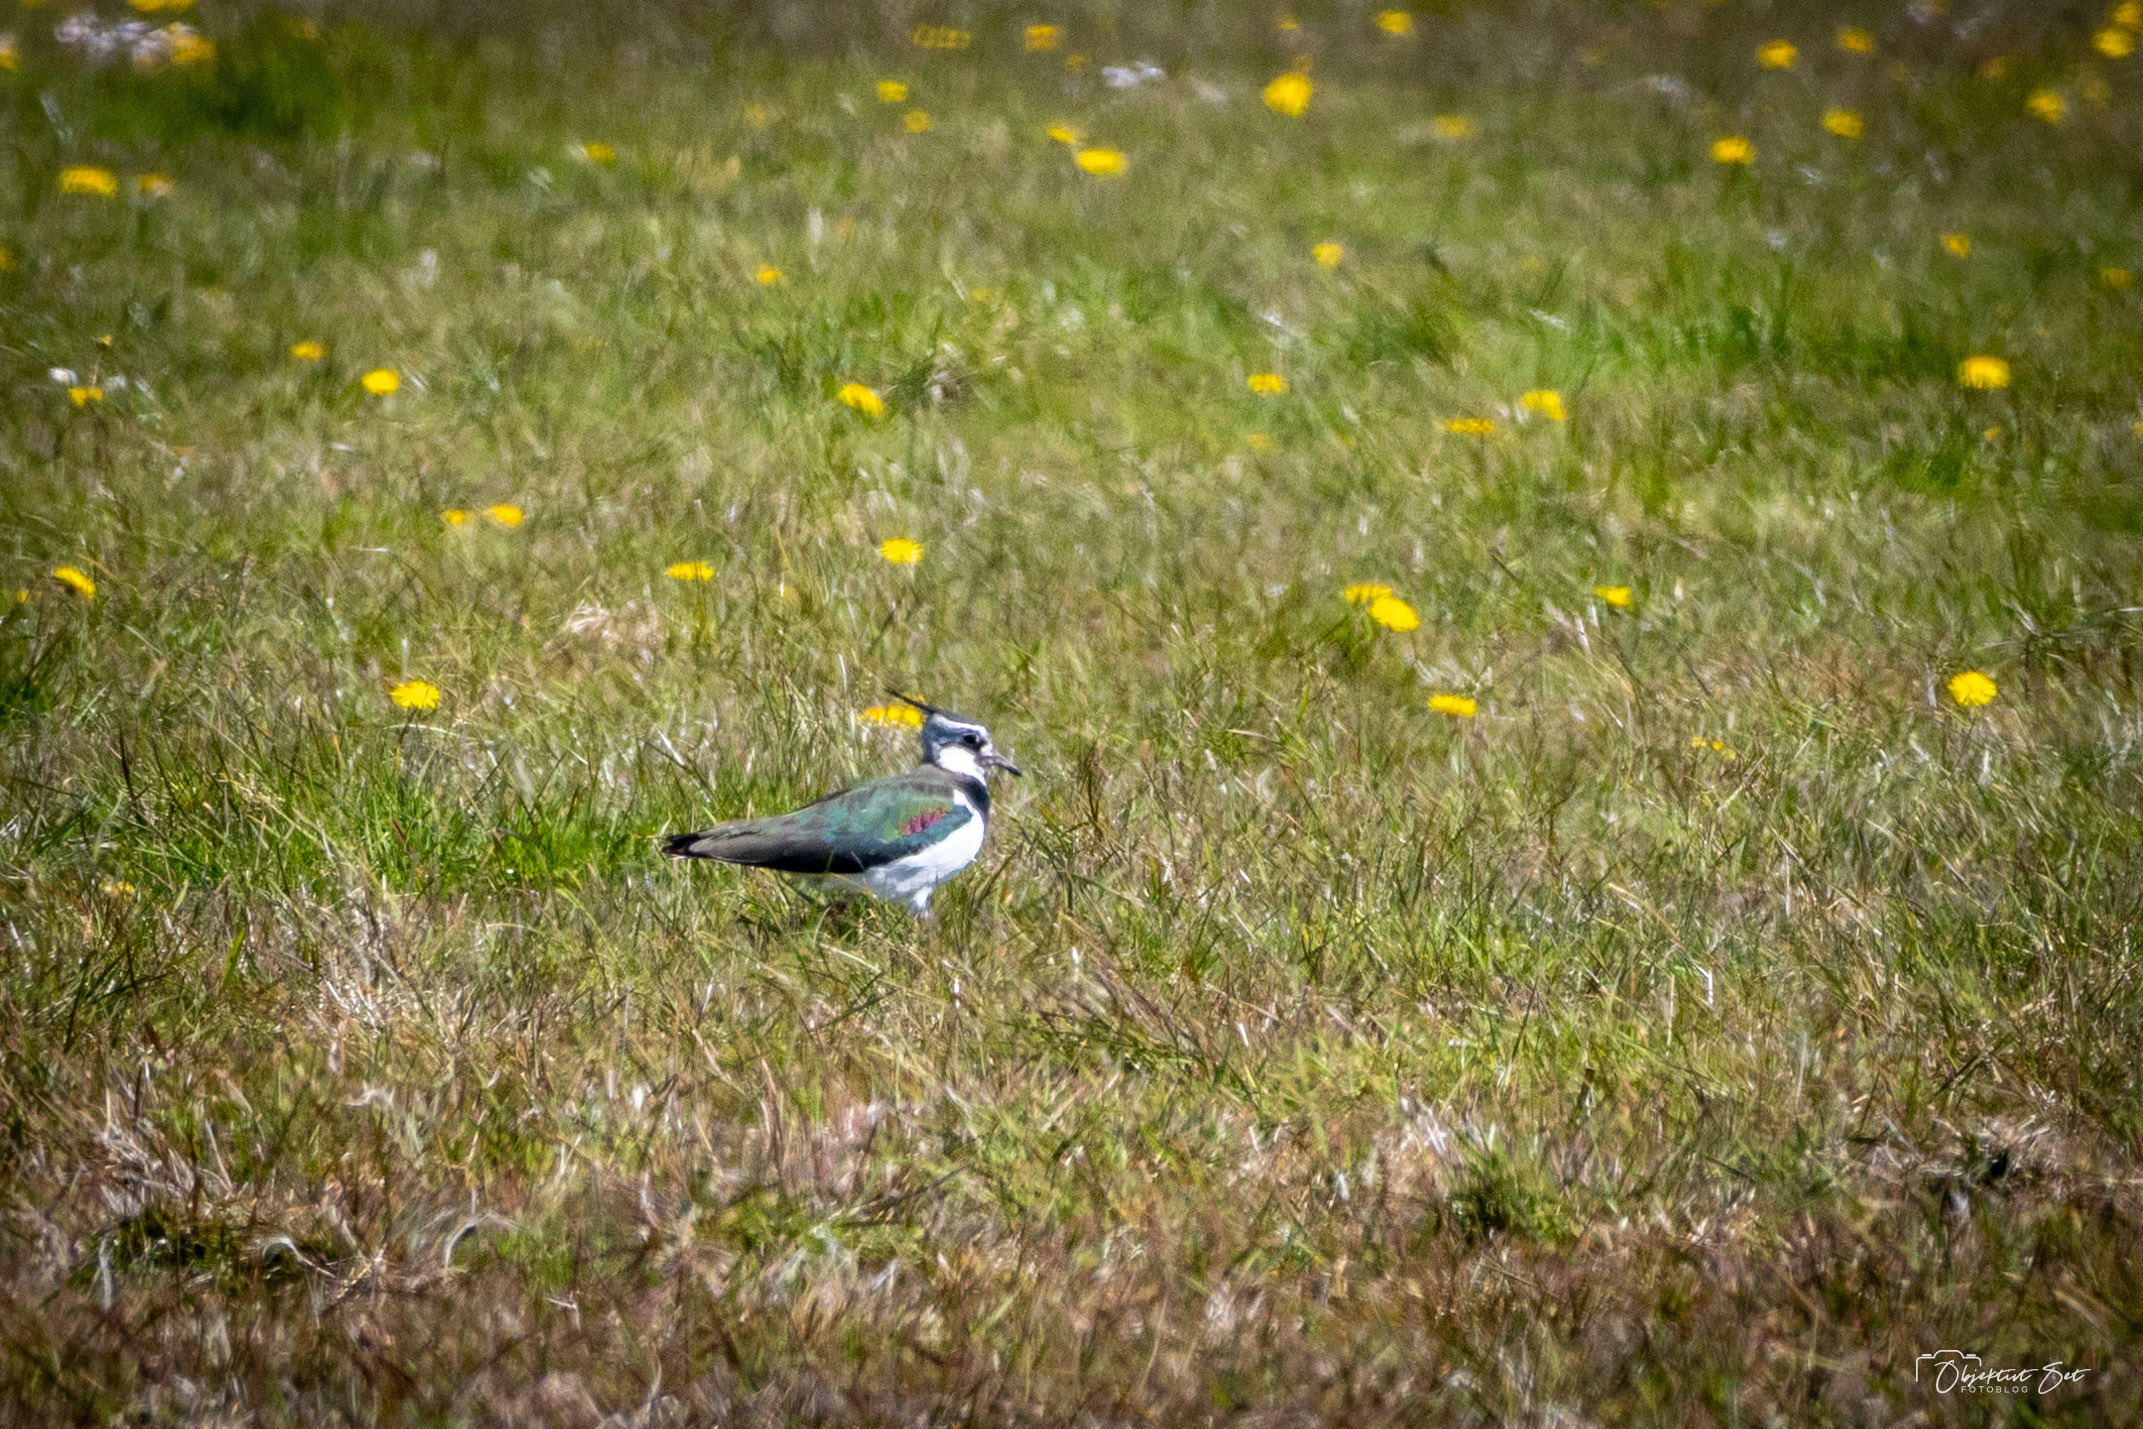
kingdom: Animalia
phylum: Chordata
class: Aves
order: Charadriiformes
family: Charadriidae
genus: Vanellus
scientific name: Vanellus vanellus
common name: Vibe
